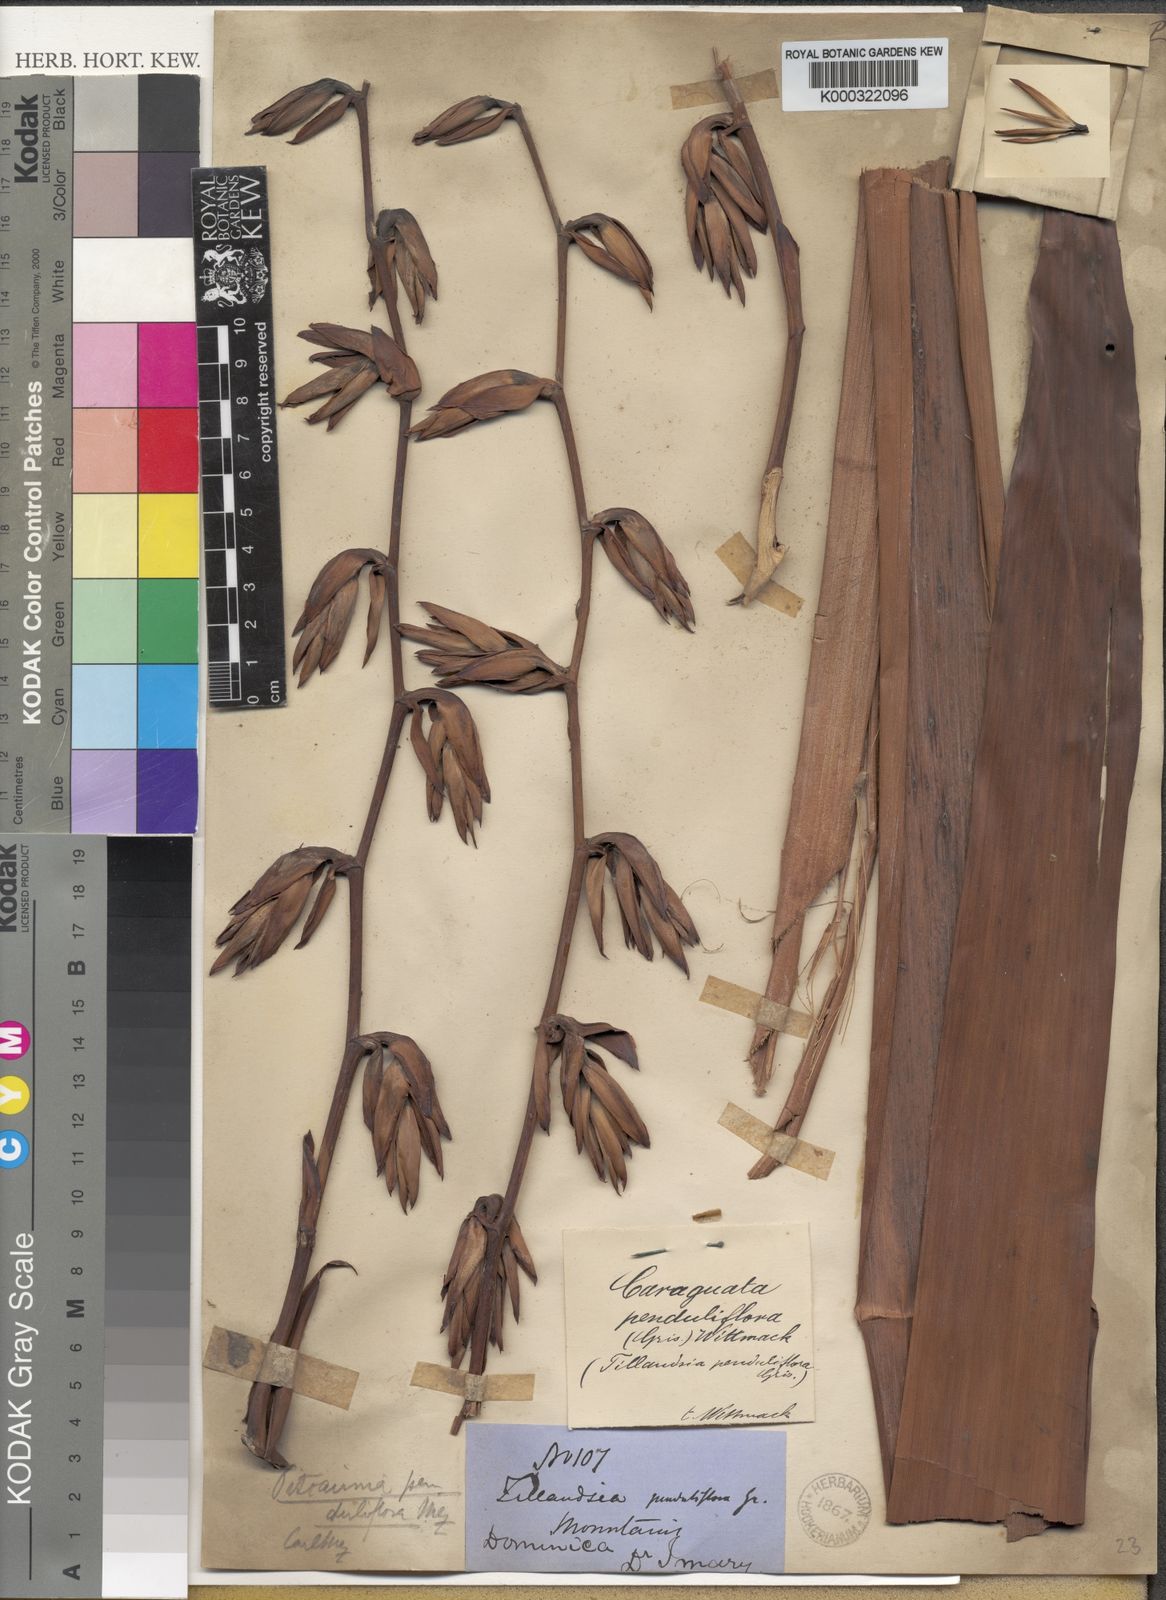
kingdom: Plantae
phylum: Tracheophyta
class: Liliopsida
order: Poales
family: Bromeliaceae
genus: Glomeropitcairnia
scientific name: Glomeropitcairnia penduliflora
